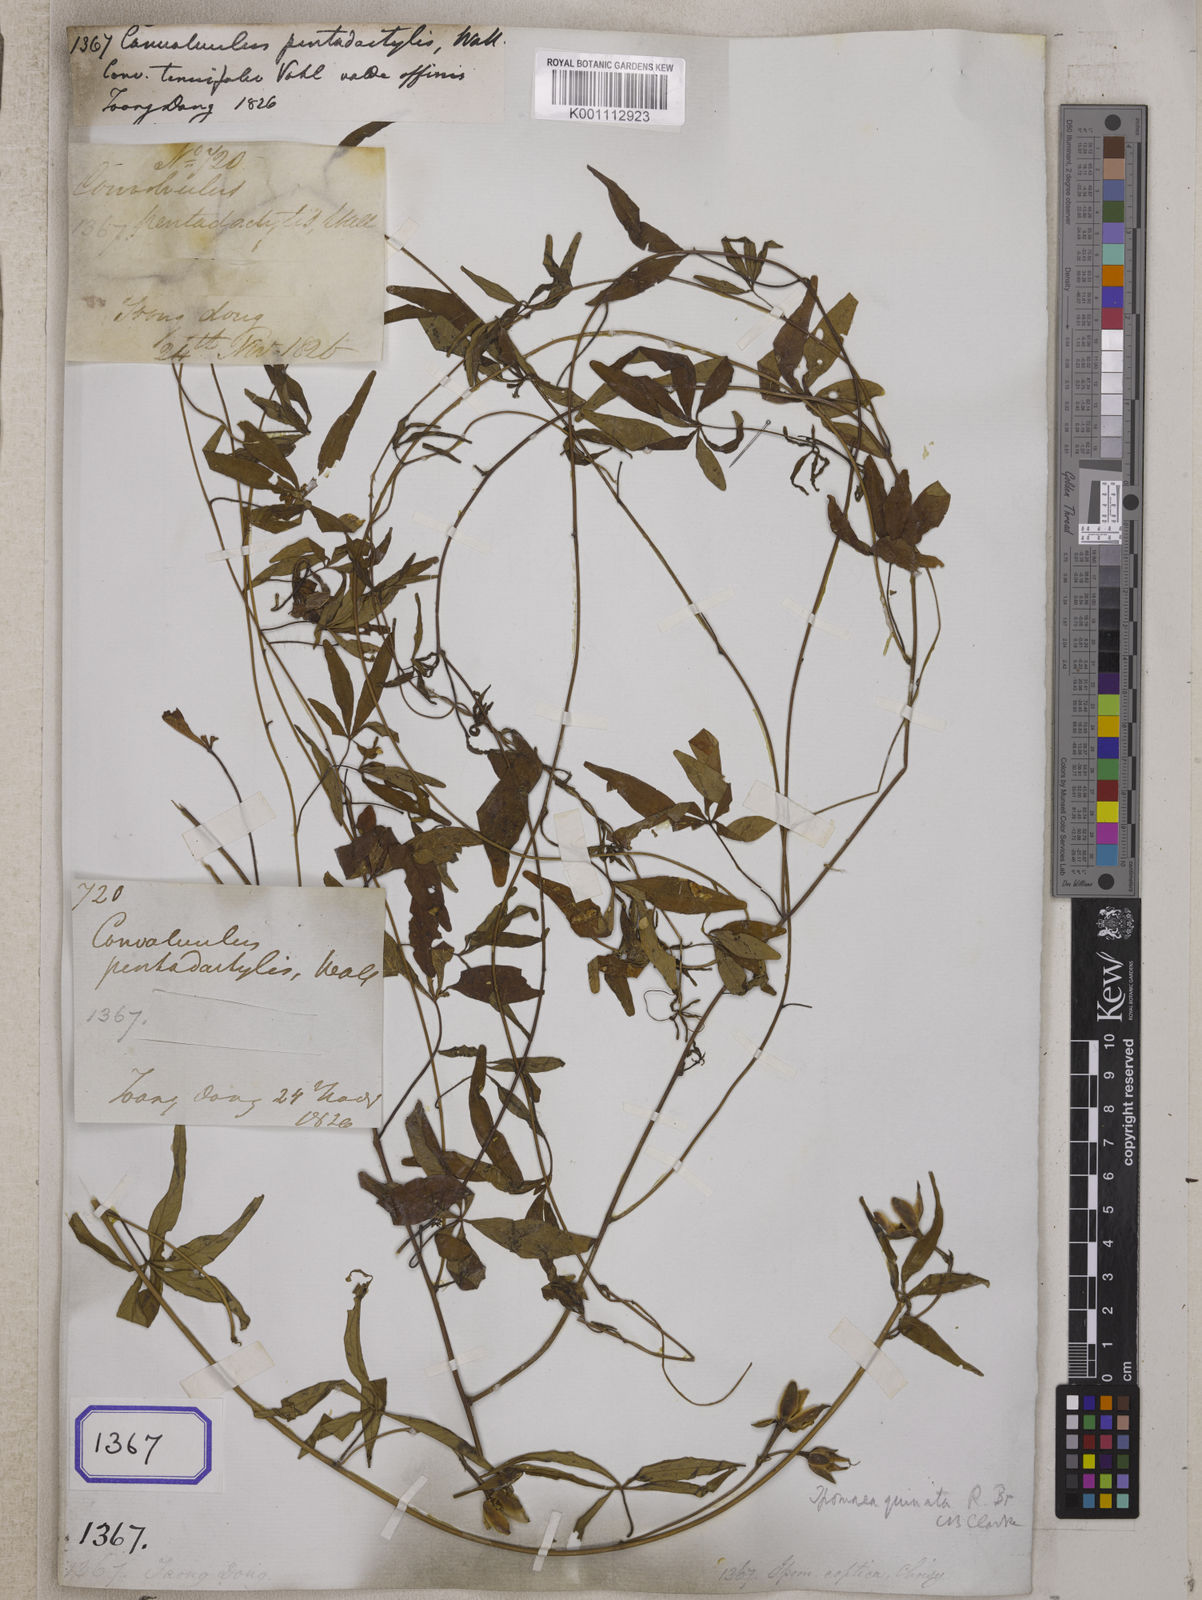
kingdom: Plantae
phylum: Tracheophyta
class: Magnoliopsida
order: Solanales
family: Convolvulaceae
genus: Distimake
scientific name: Distimake quinatus
